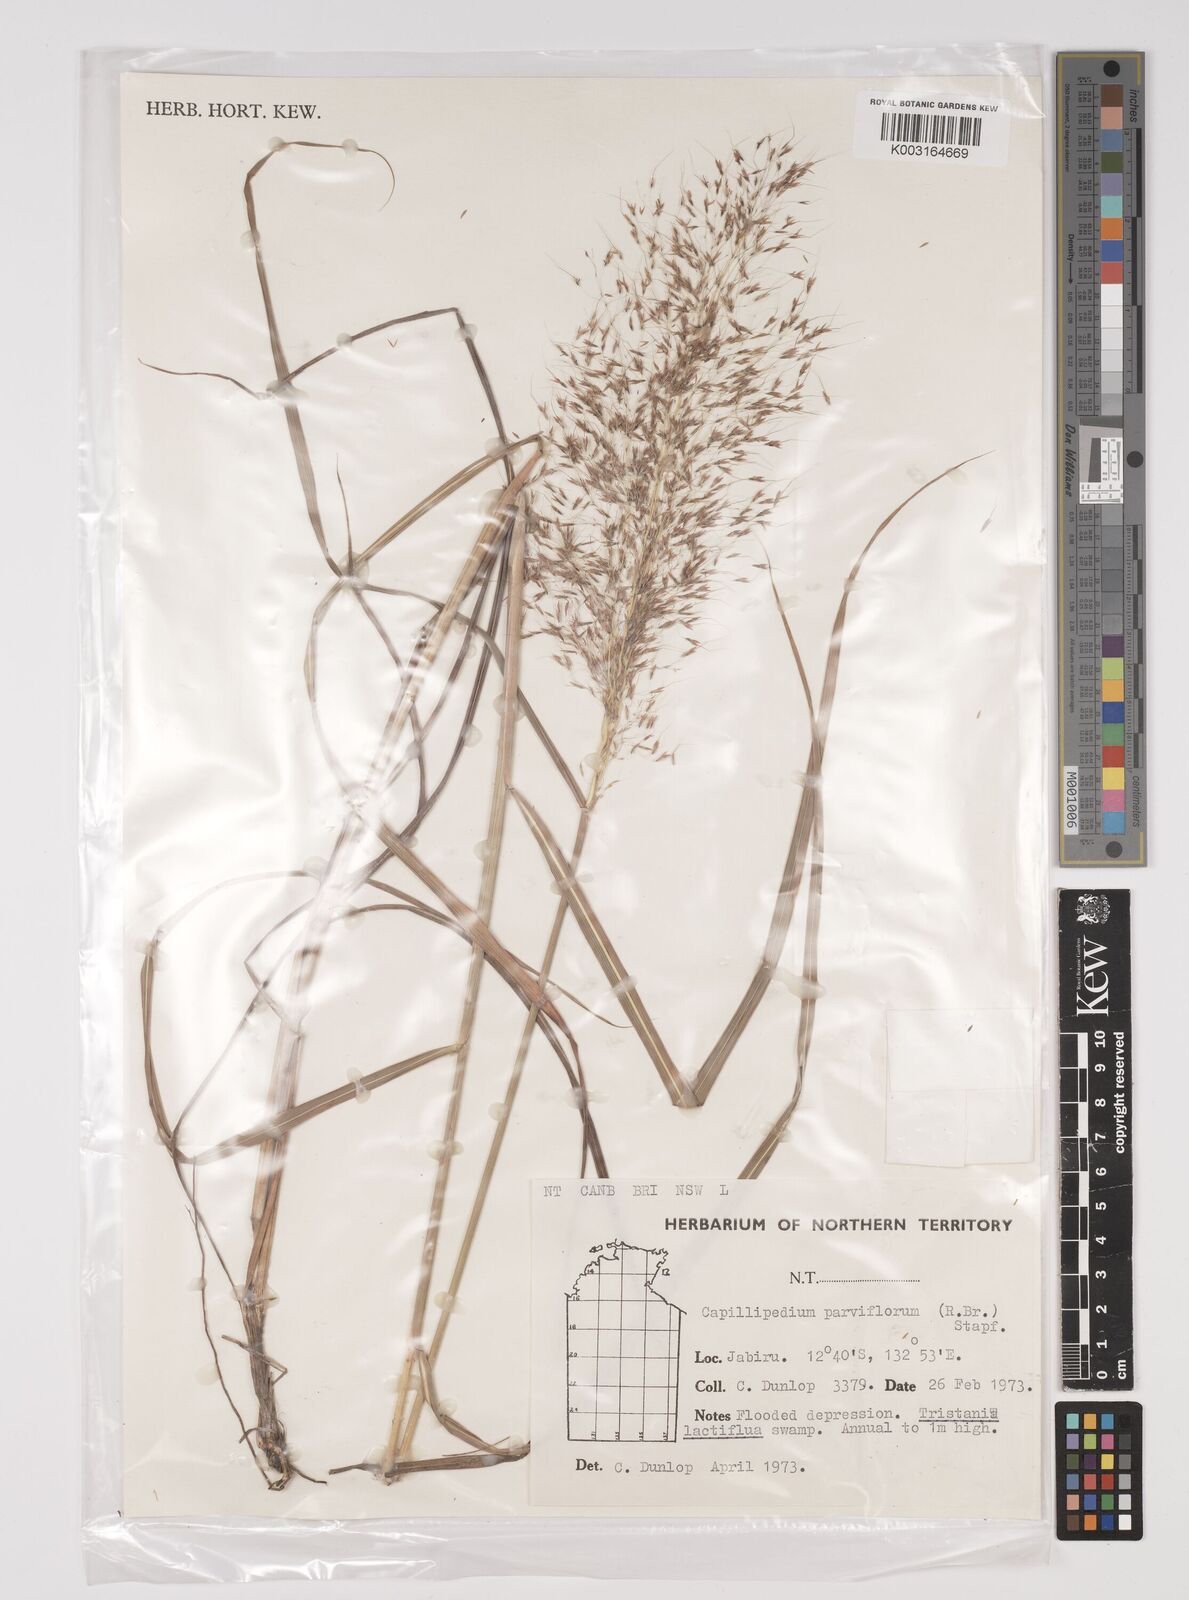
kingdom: Plantae
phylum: Tracheophyta
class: Liliopsida
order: Poales
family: Poaceae
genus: Capillipedium
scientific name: Capillipedium parviflorum
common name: Golden-beard
